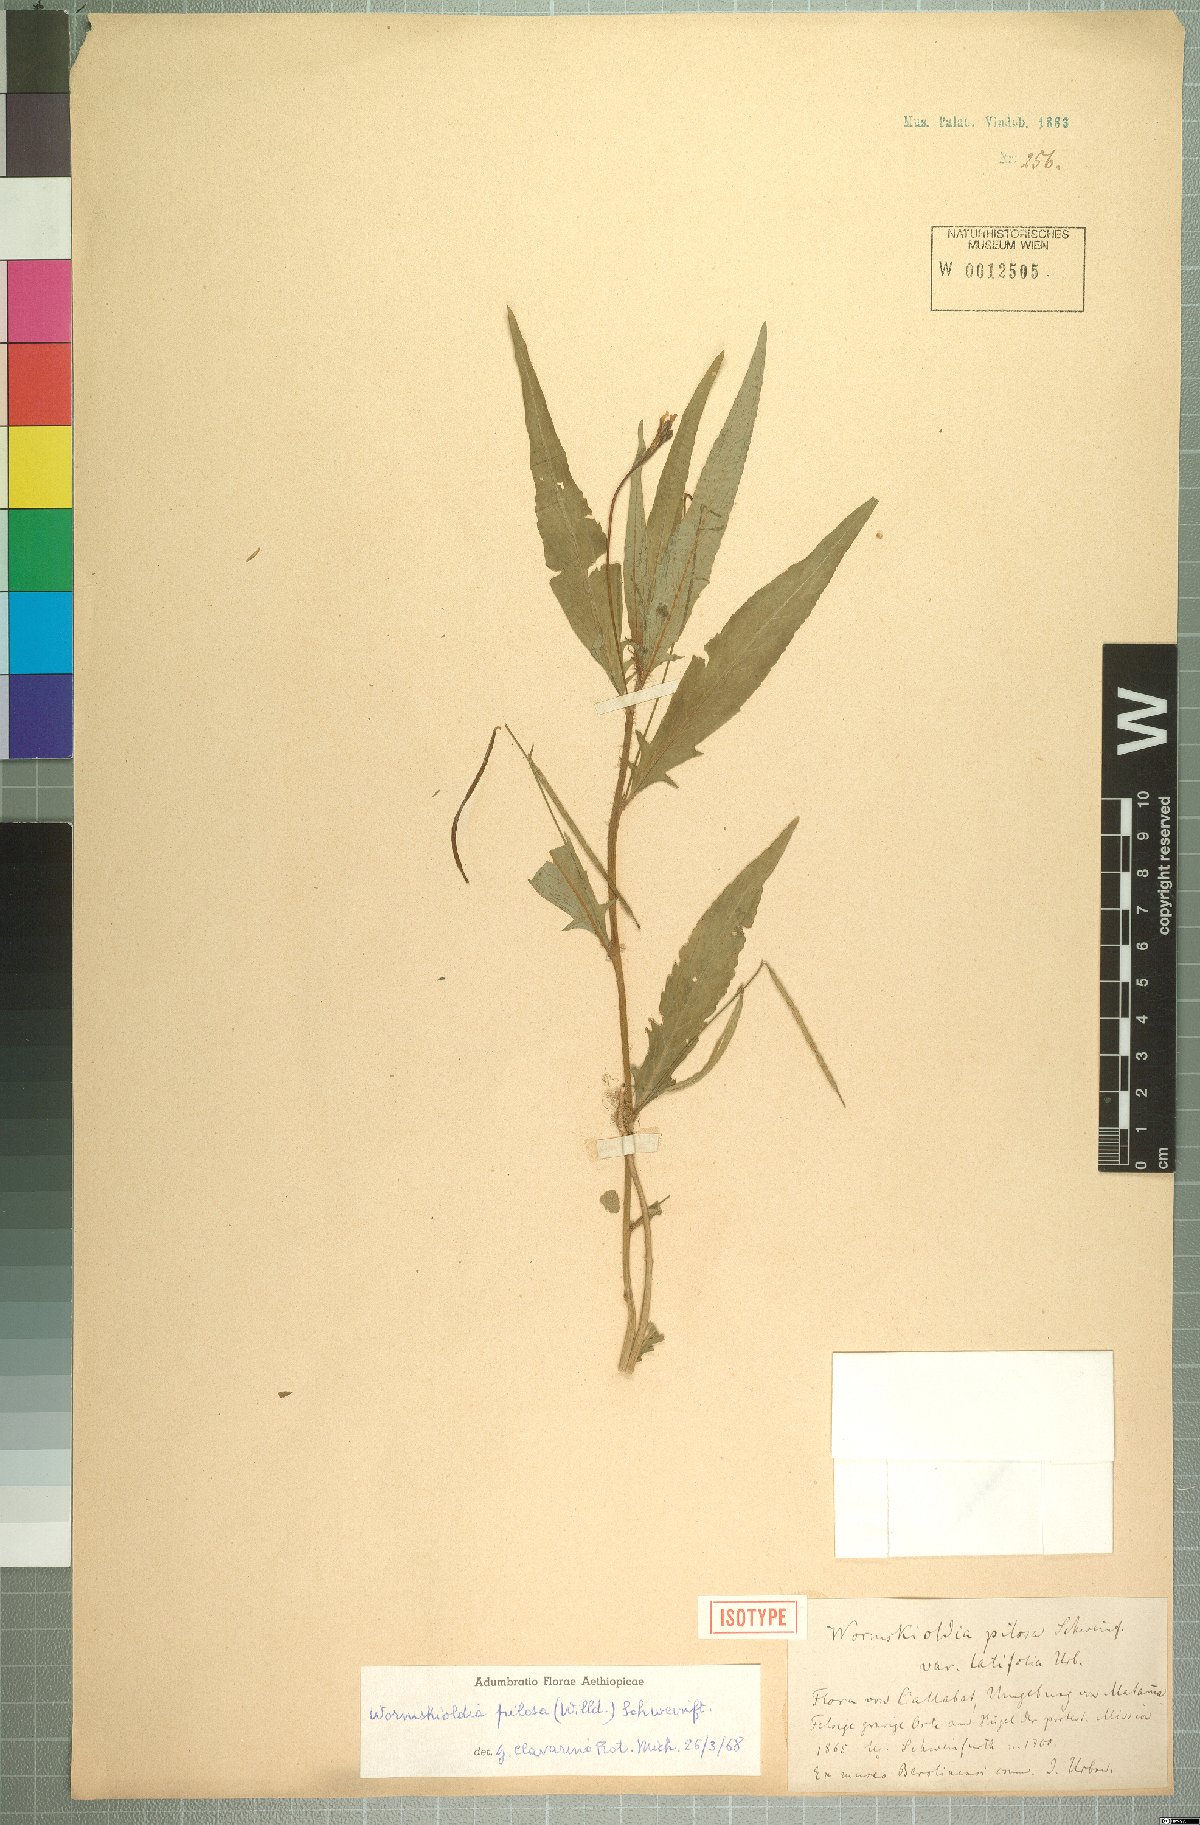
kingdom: Plantae
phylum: Tracheophyta
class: Magnoliopsida
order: Malpighiales
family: Turneraceae
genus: Tricliceras
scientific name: Tricliceras pilosum
